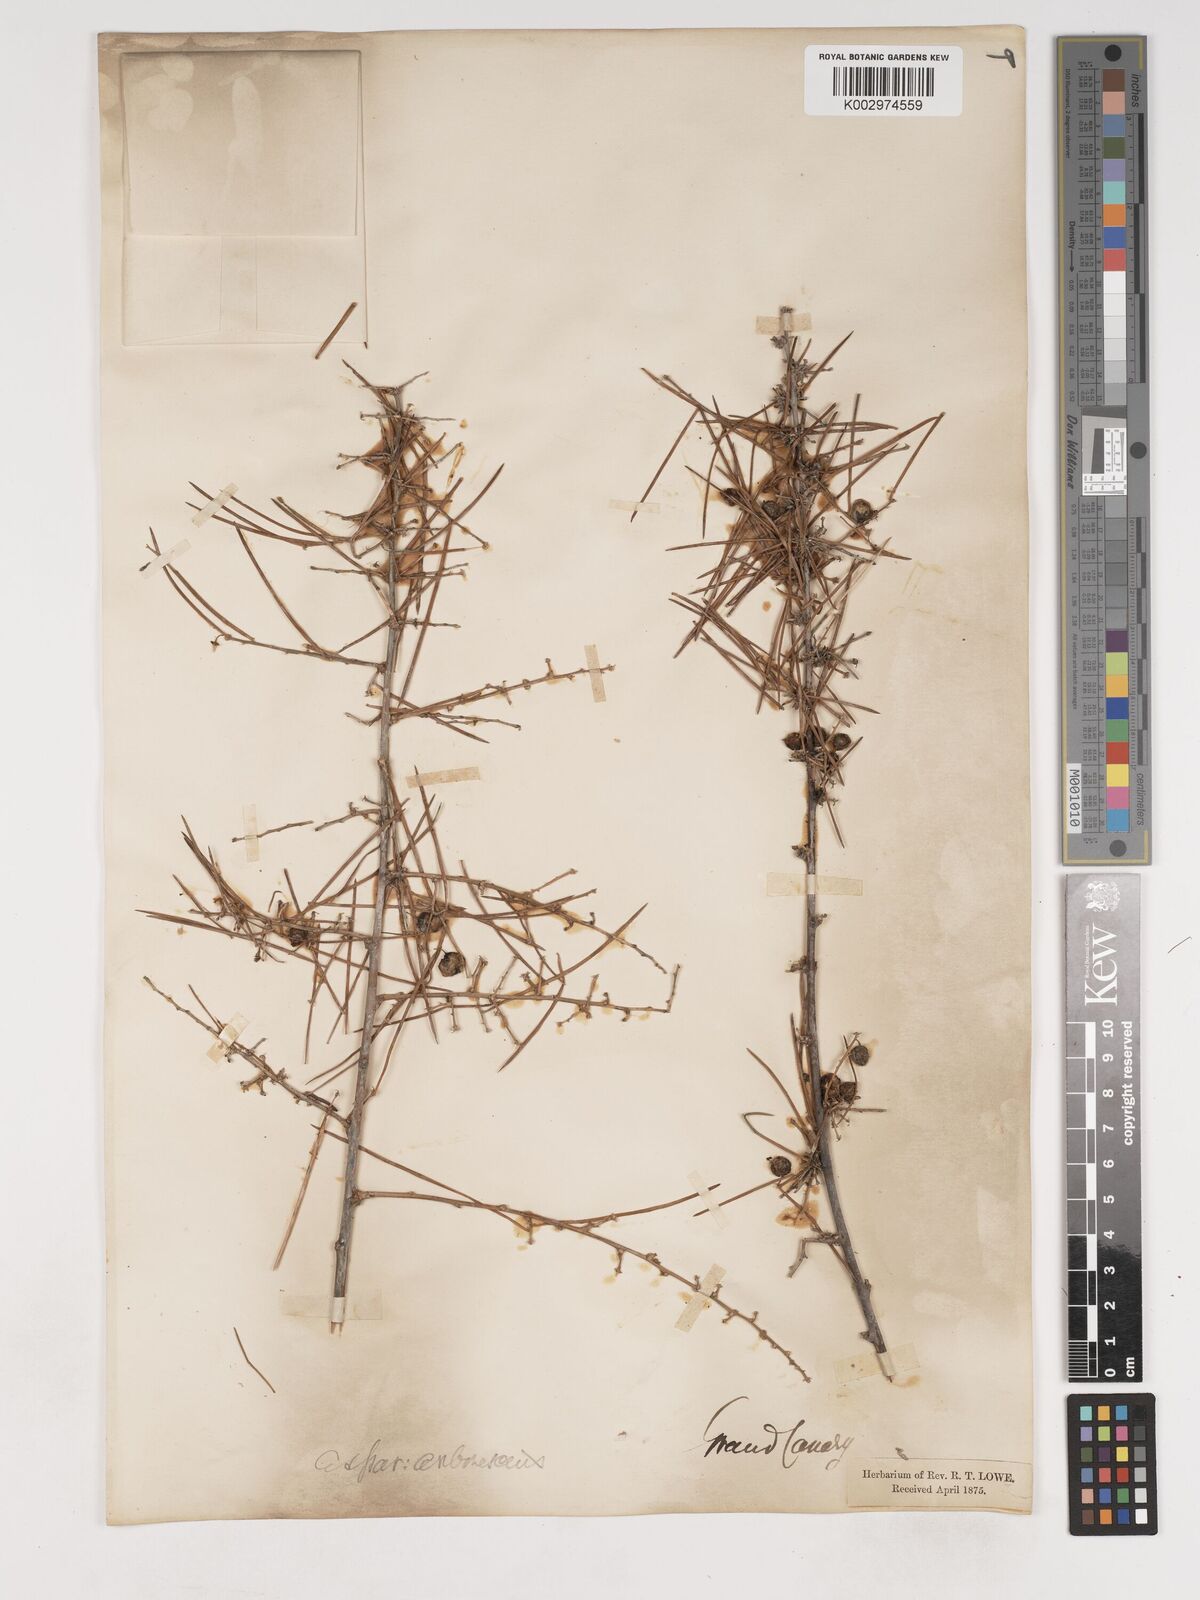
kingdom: Plantae
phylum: Tracheophyta
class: Liliopsida
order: Asparagales
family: Asparagaceae
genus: Asparagus
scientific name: Asparagus arborescens
